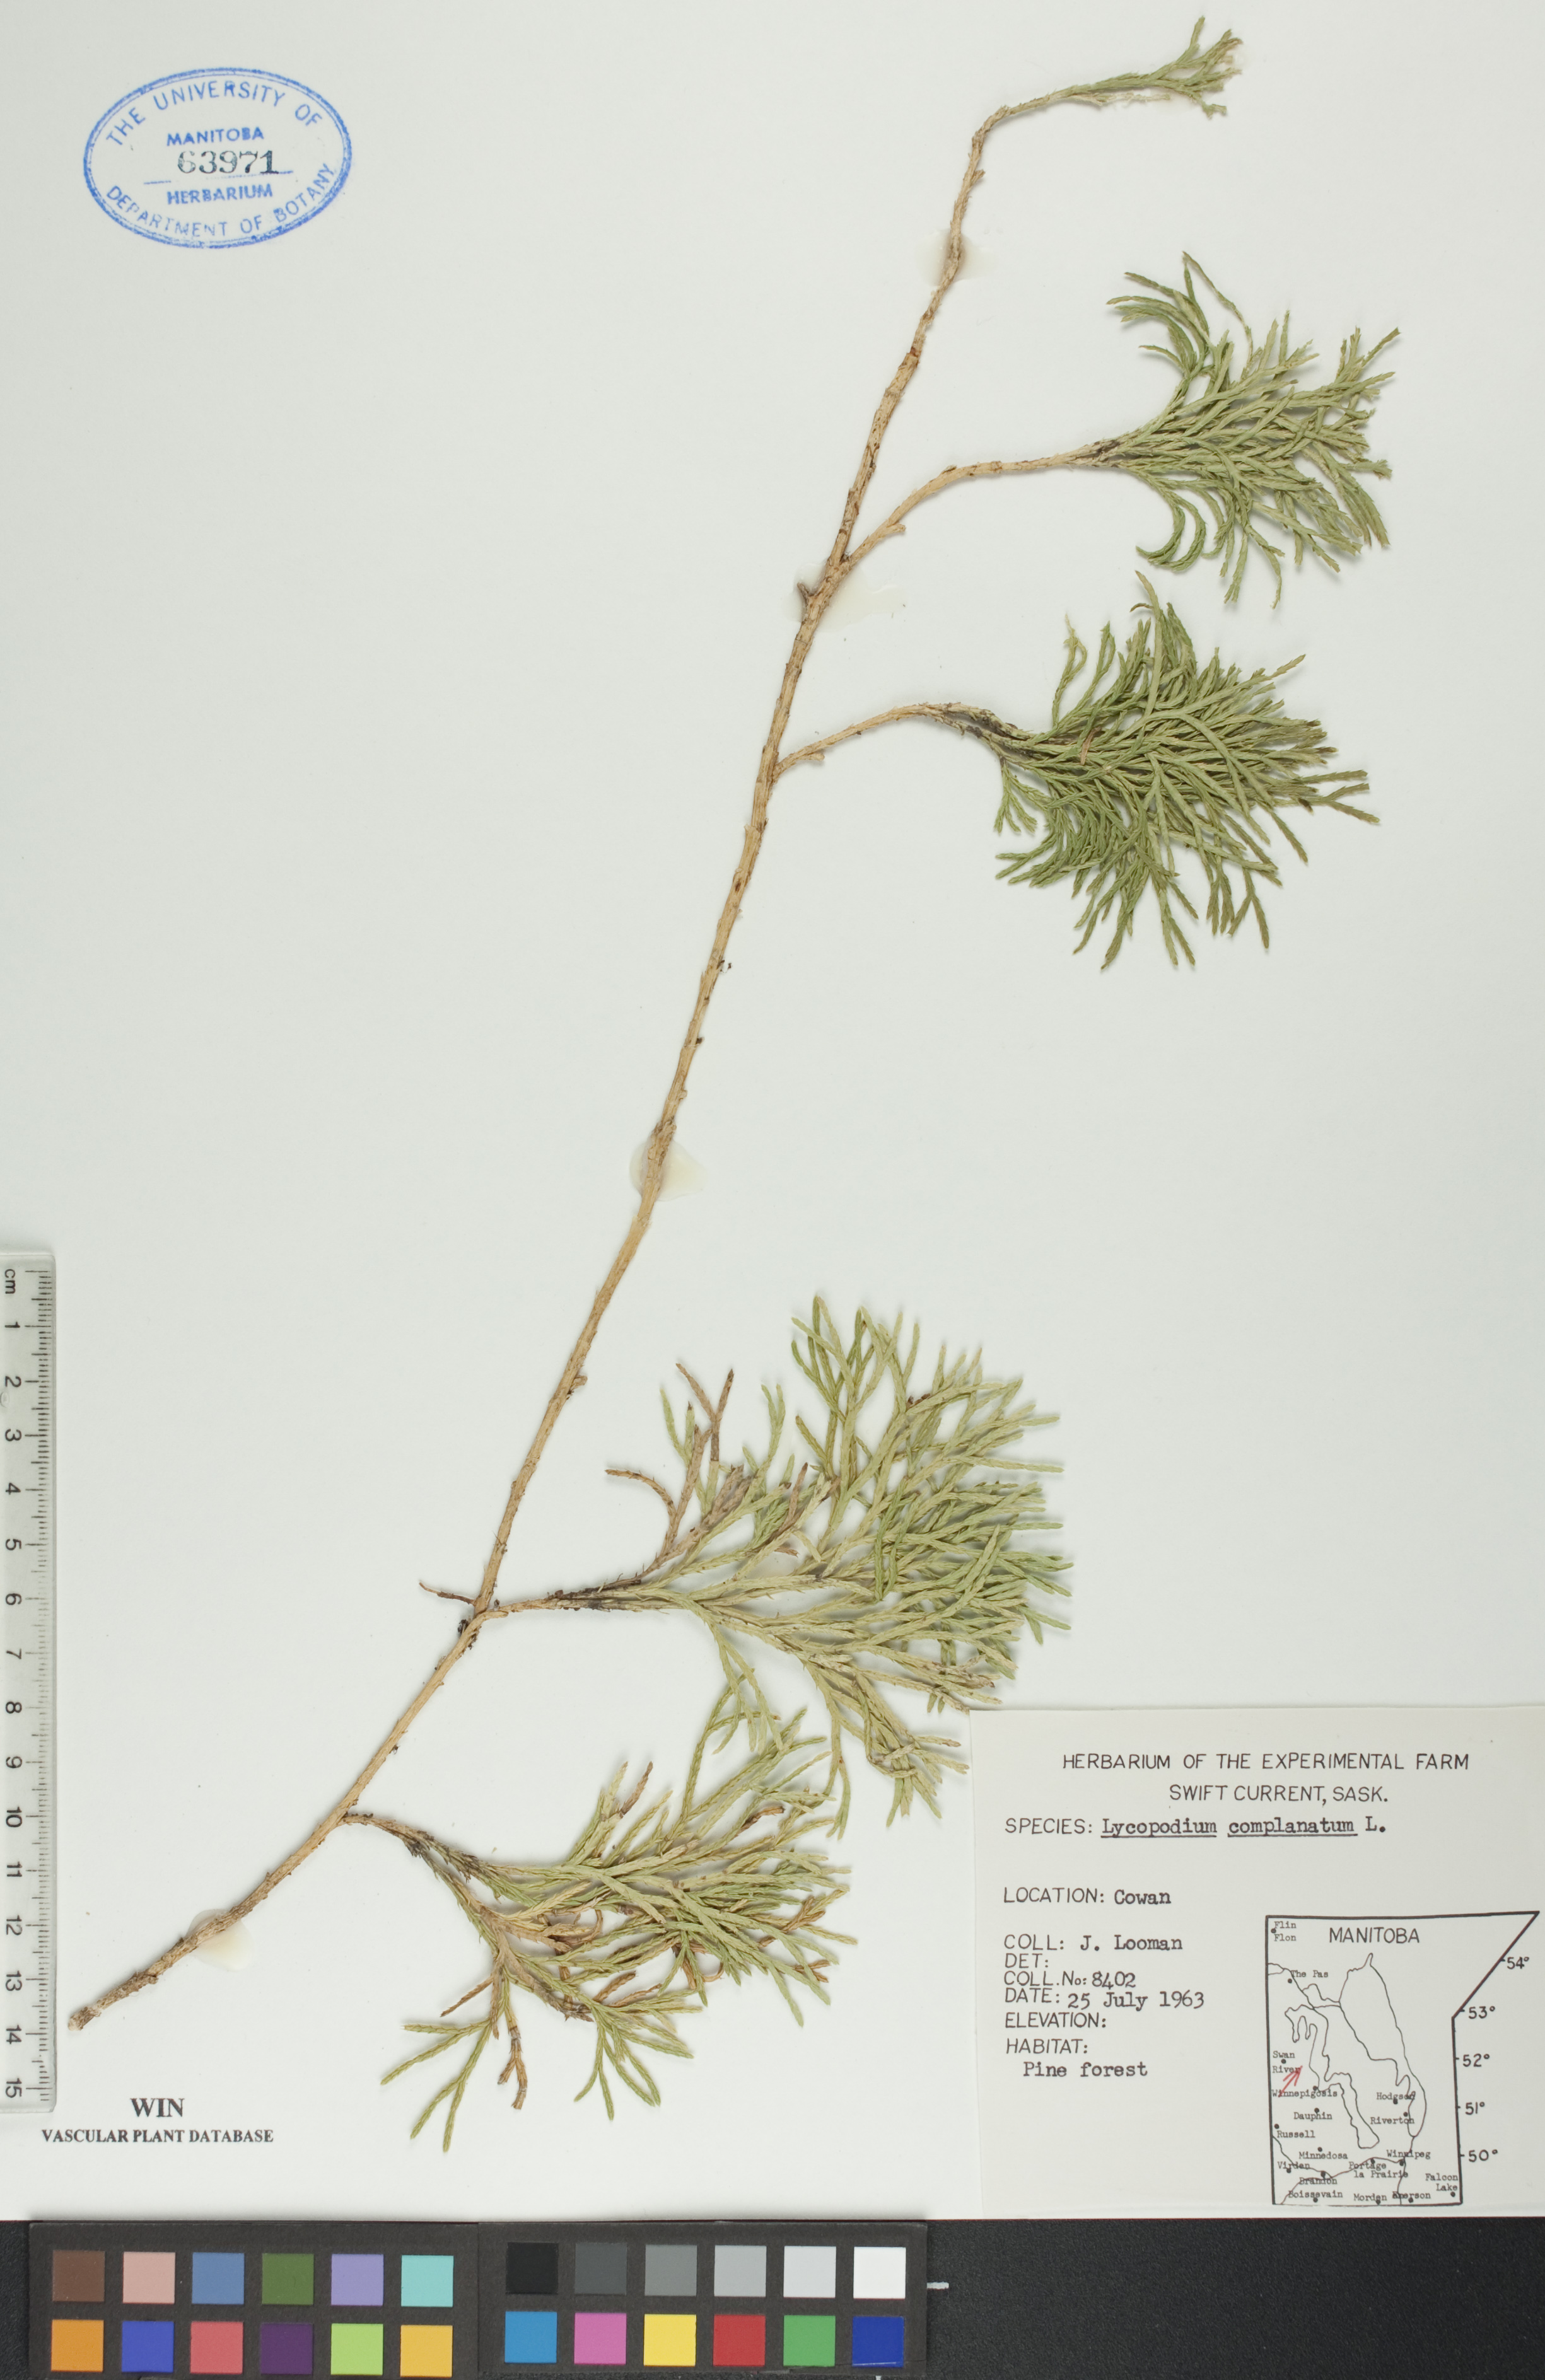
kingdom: Plantae
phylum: Tracheophyta
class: Lycopodiopsida
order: Lycopodiales
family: Lycopodiaceae
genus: Diphasiastrum
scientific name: Diphasiastrum
